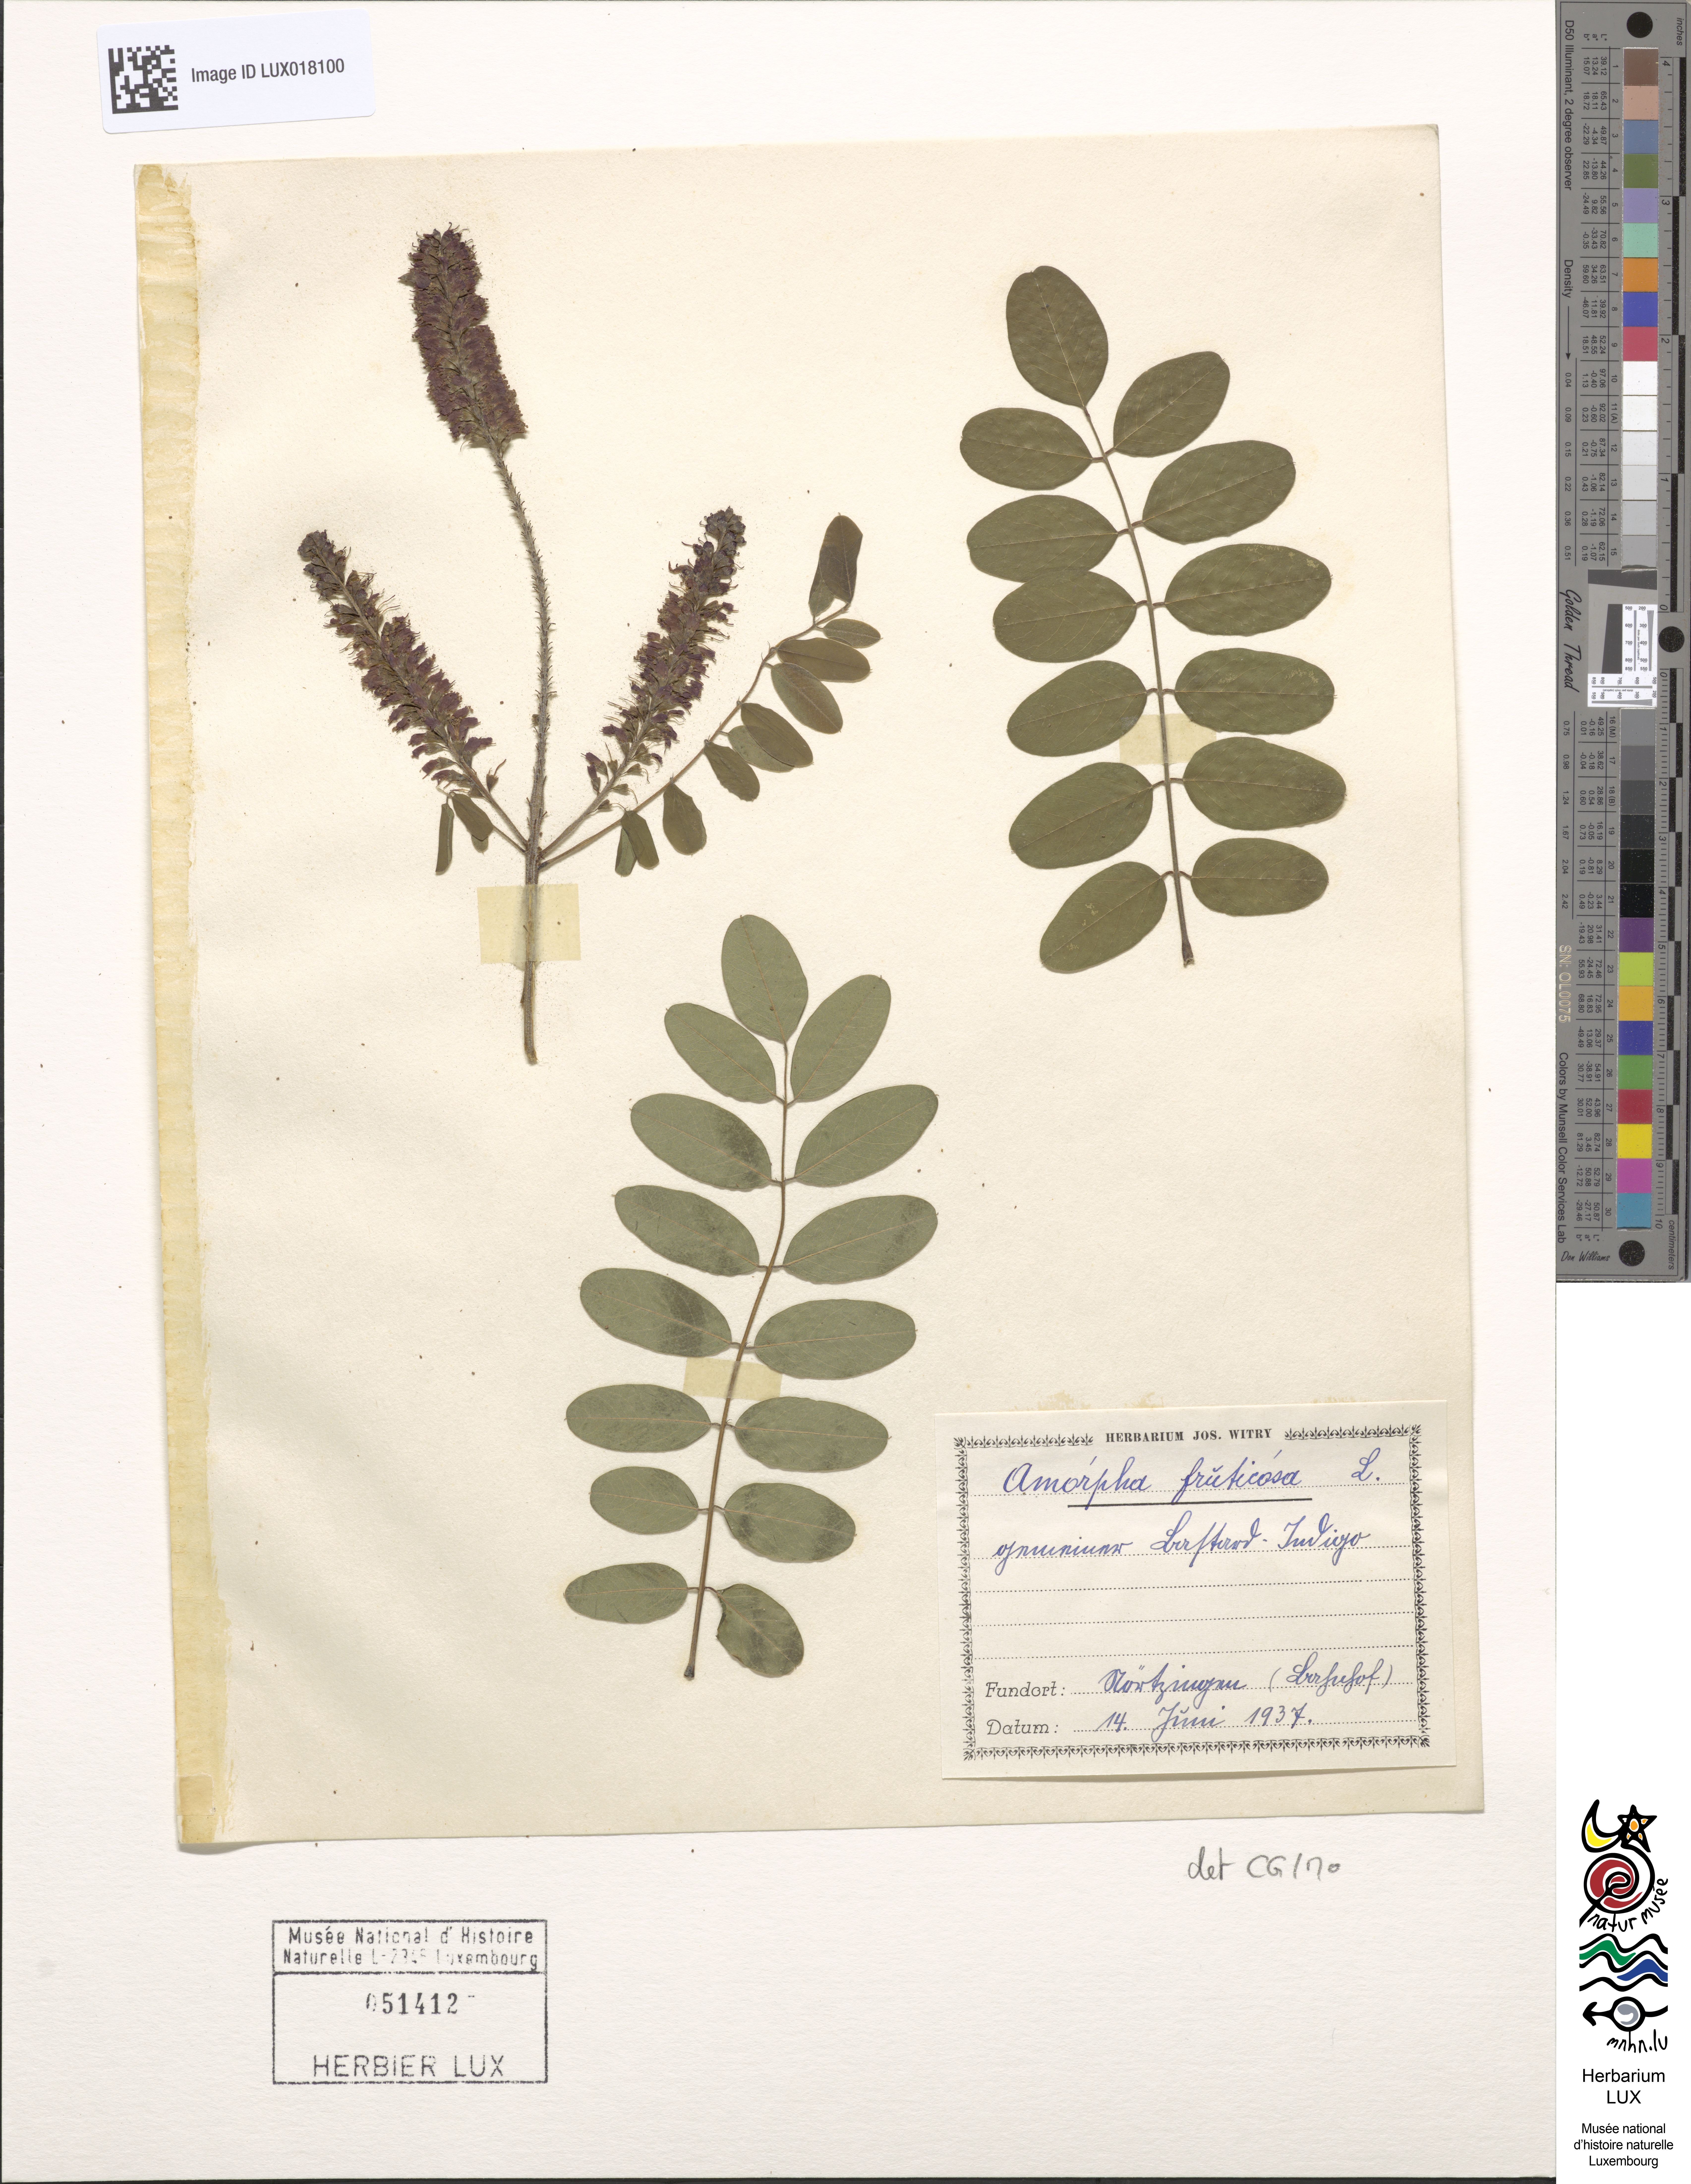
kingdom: Plantae
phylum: Tracheophyta
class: Magnoliopsida
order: Fabales
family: Fabaceae
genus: Amorpha
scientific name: Amorpha fruticosa
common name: False indigo
